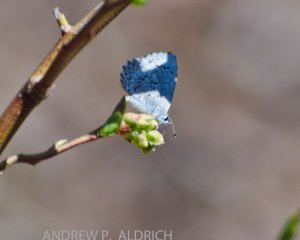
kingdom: Animalia
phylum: Arthropoda
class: Insecta
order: Lepidoptera
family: Lycaenidae
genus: Celastrina
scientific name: Celastrina lucia
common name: Northern Spring Azure
